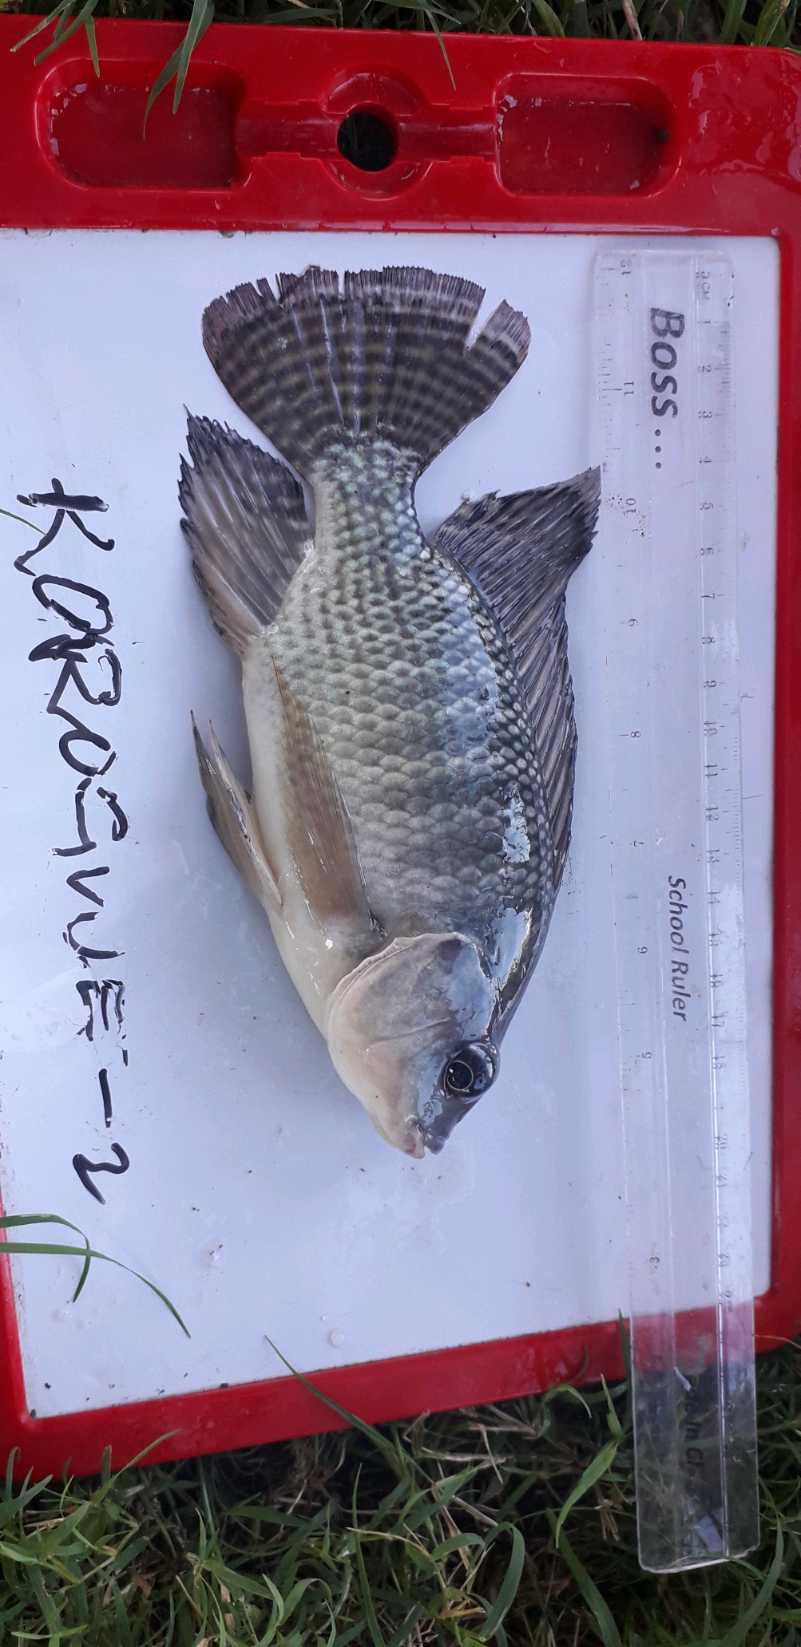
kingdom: Animalia
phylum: Chordata
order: Perciformes
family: Cichlidae
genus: Oreochromis
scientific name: Oreochromis niloticus
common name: Nile tilapia
